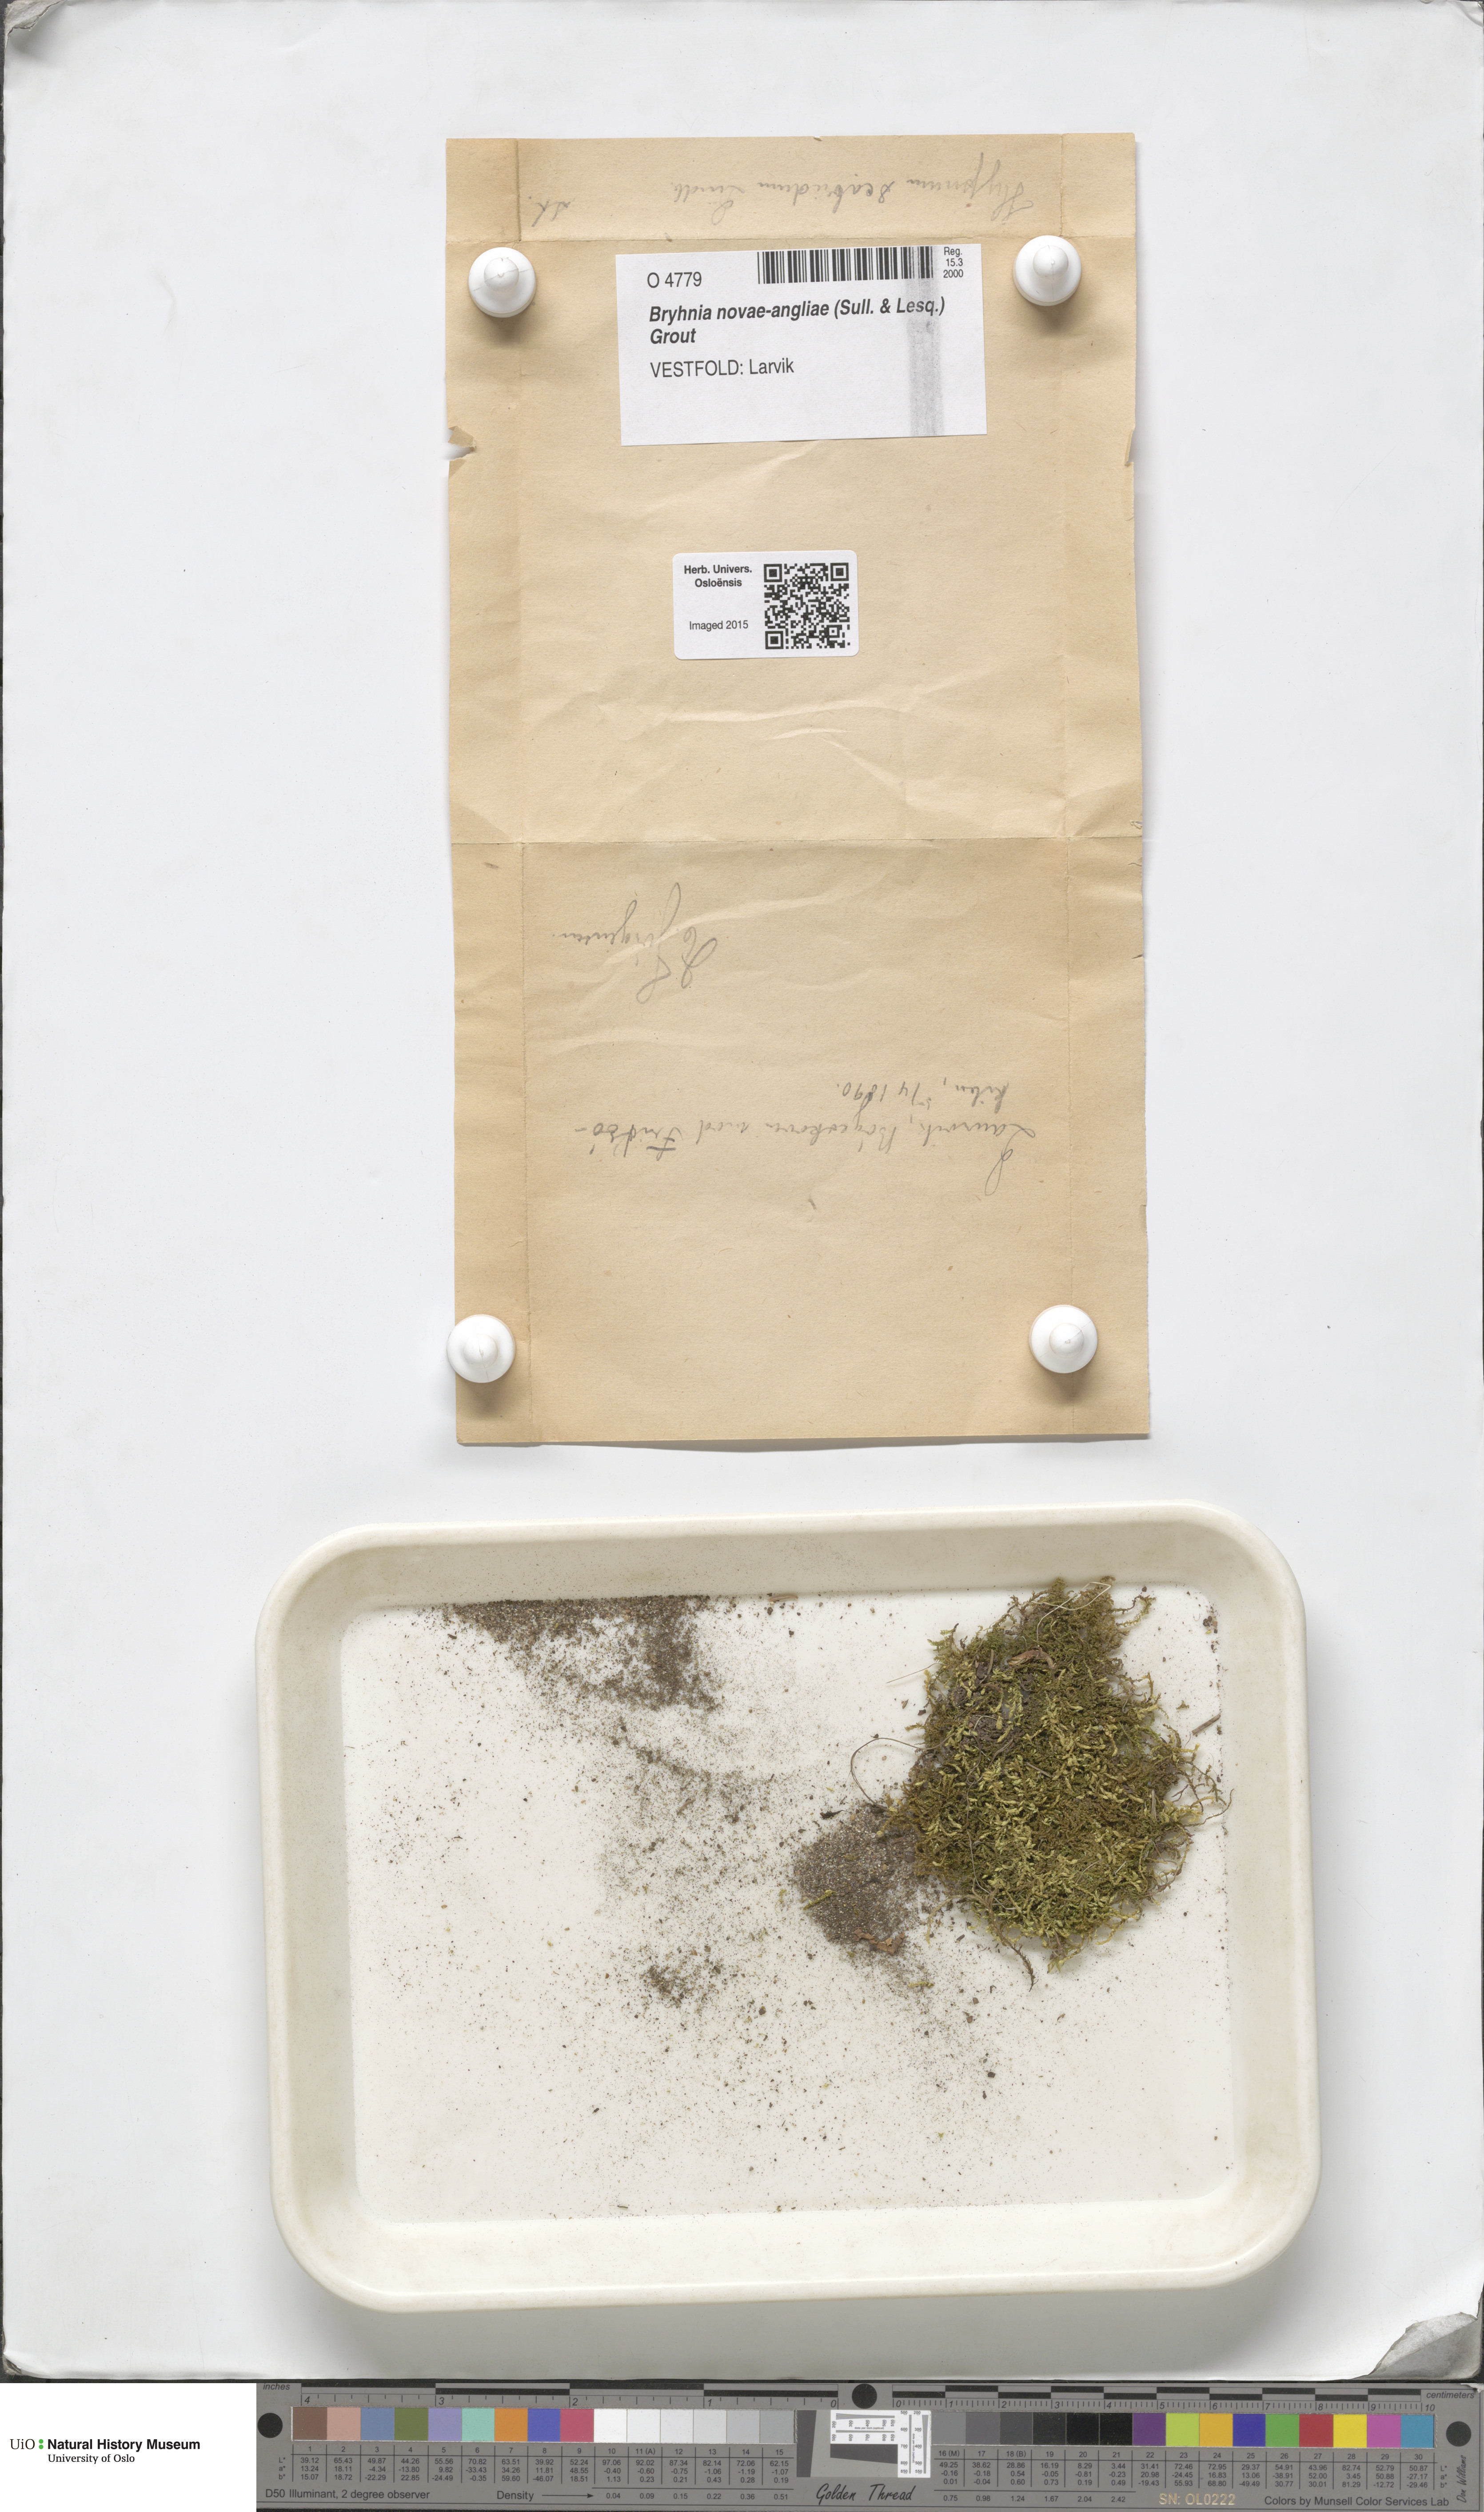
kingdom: Plantae
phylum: Bryophyta
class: Bryopsida
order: Hypnales
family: Brachytheciaceae
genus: Brachythecium
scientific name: Brachythecium novae-angliae
